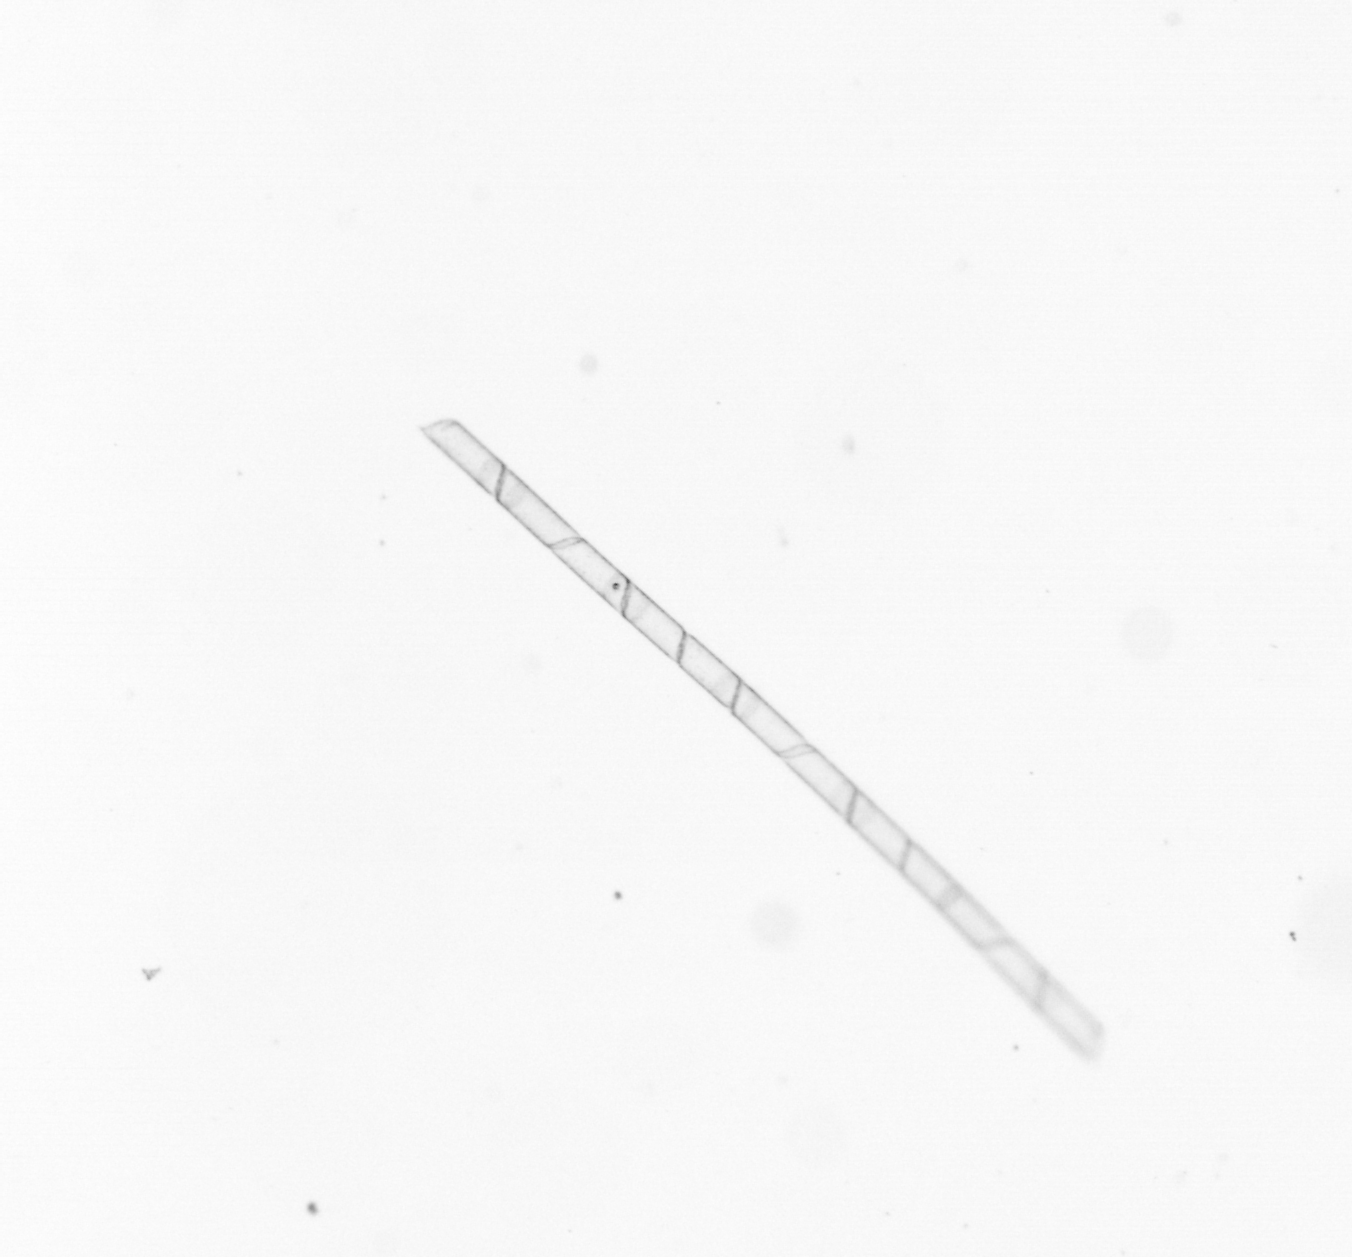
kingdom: Chromista
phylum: Ochrophyta
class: Bacillariophyceae
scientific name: Bacillariophyceae
